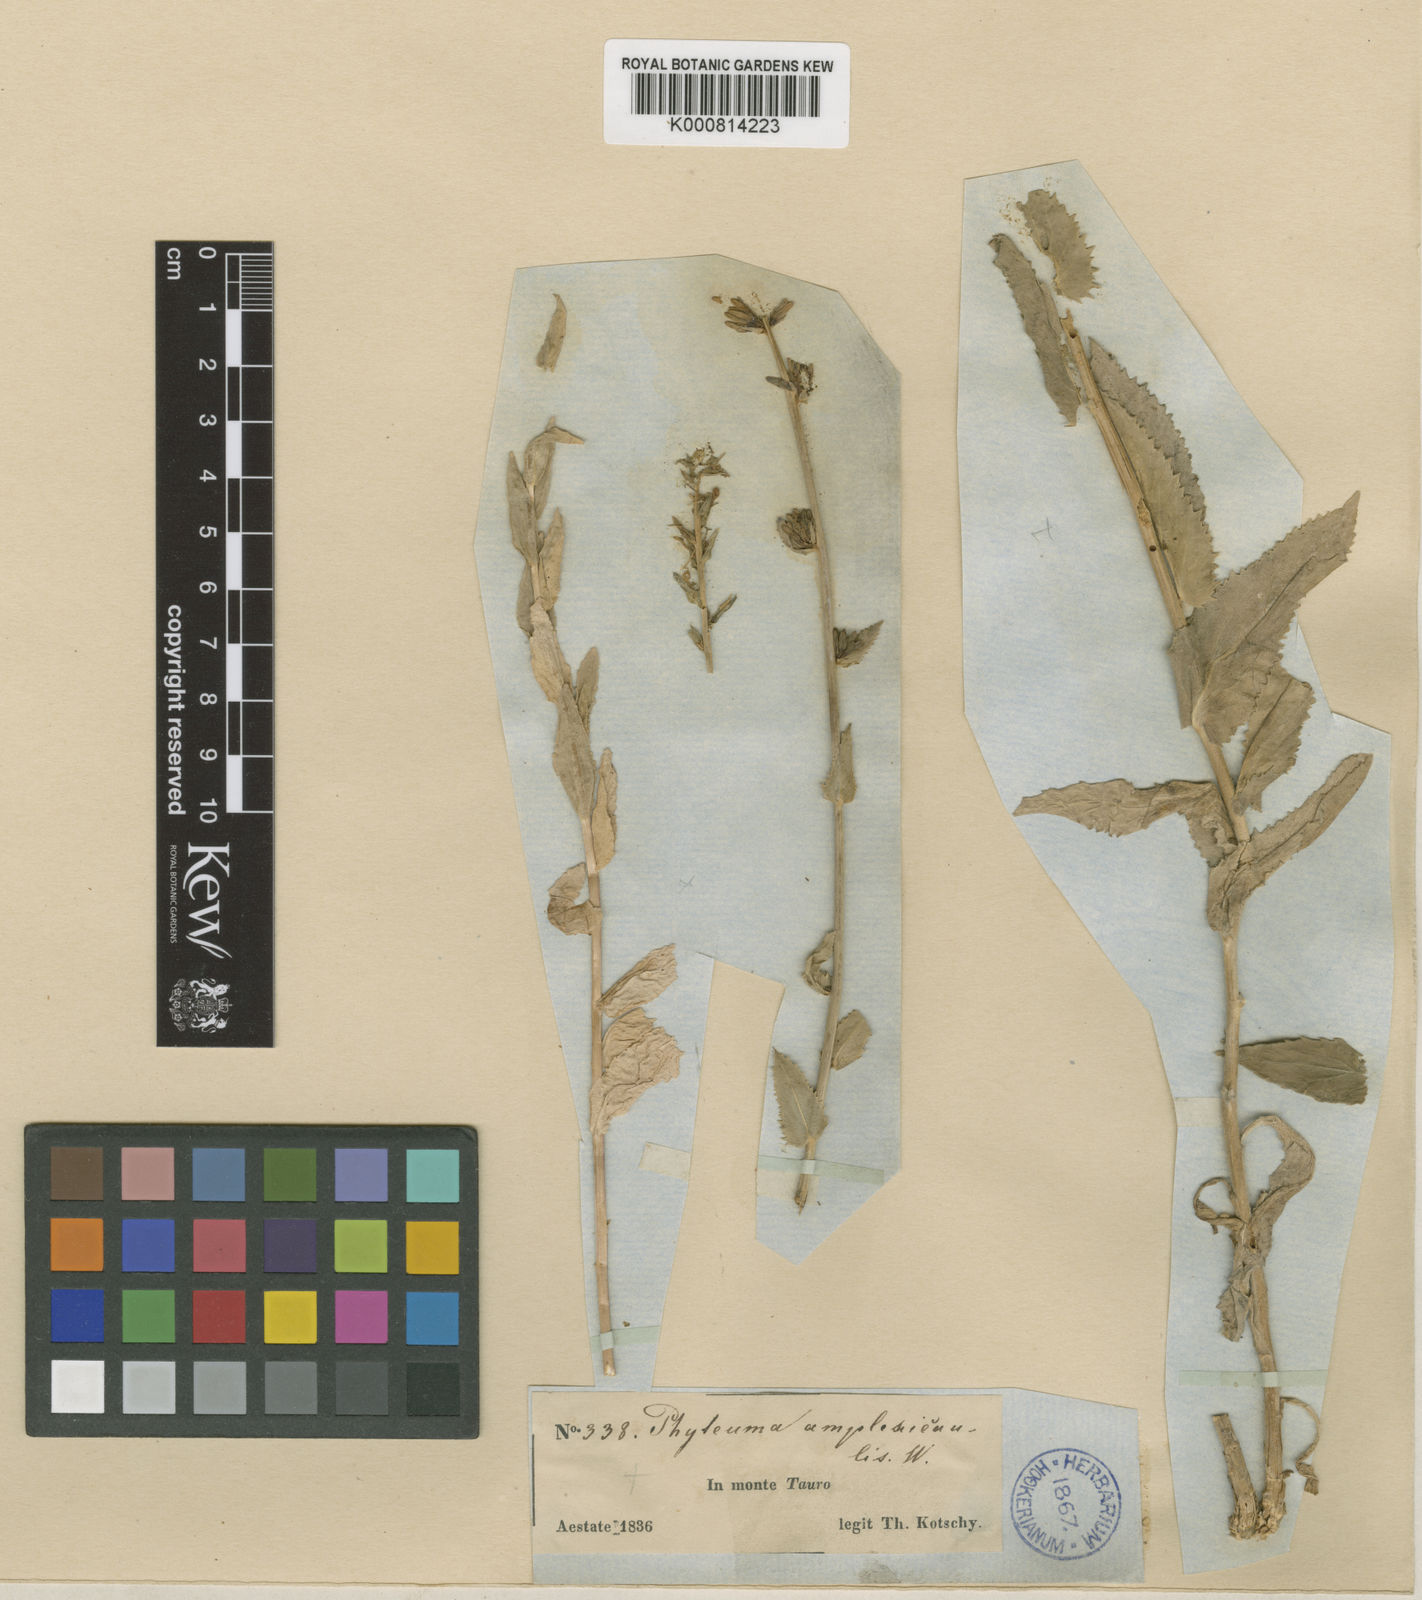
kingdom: Plantae
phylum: Tracheophyta
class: Magnoliopsida
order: Asterales
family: Campanulaceae
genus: Asyneuma
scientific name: Asyneuma amplexicaule
